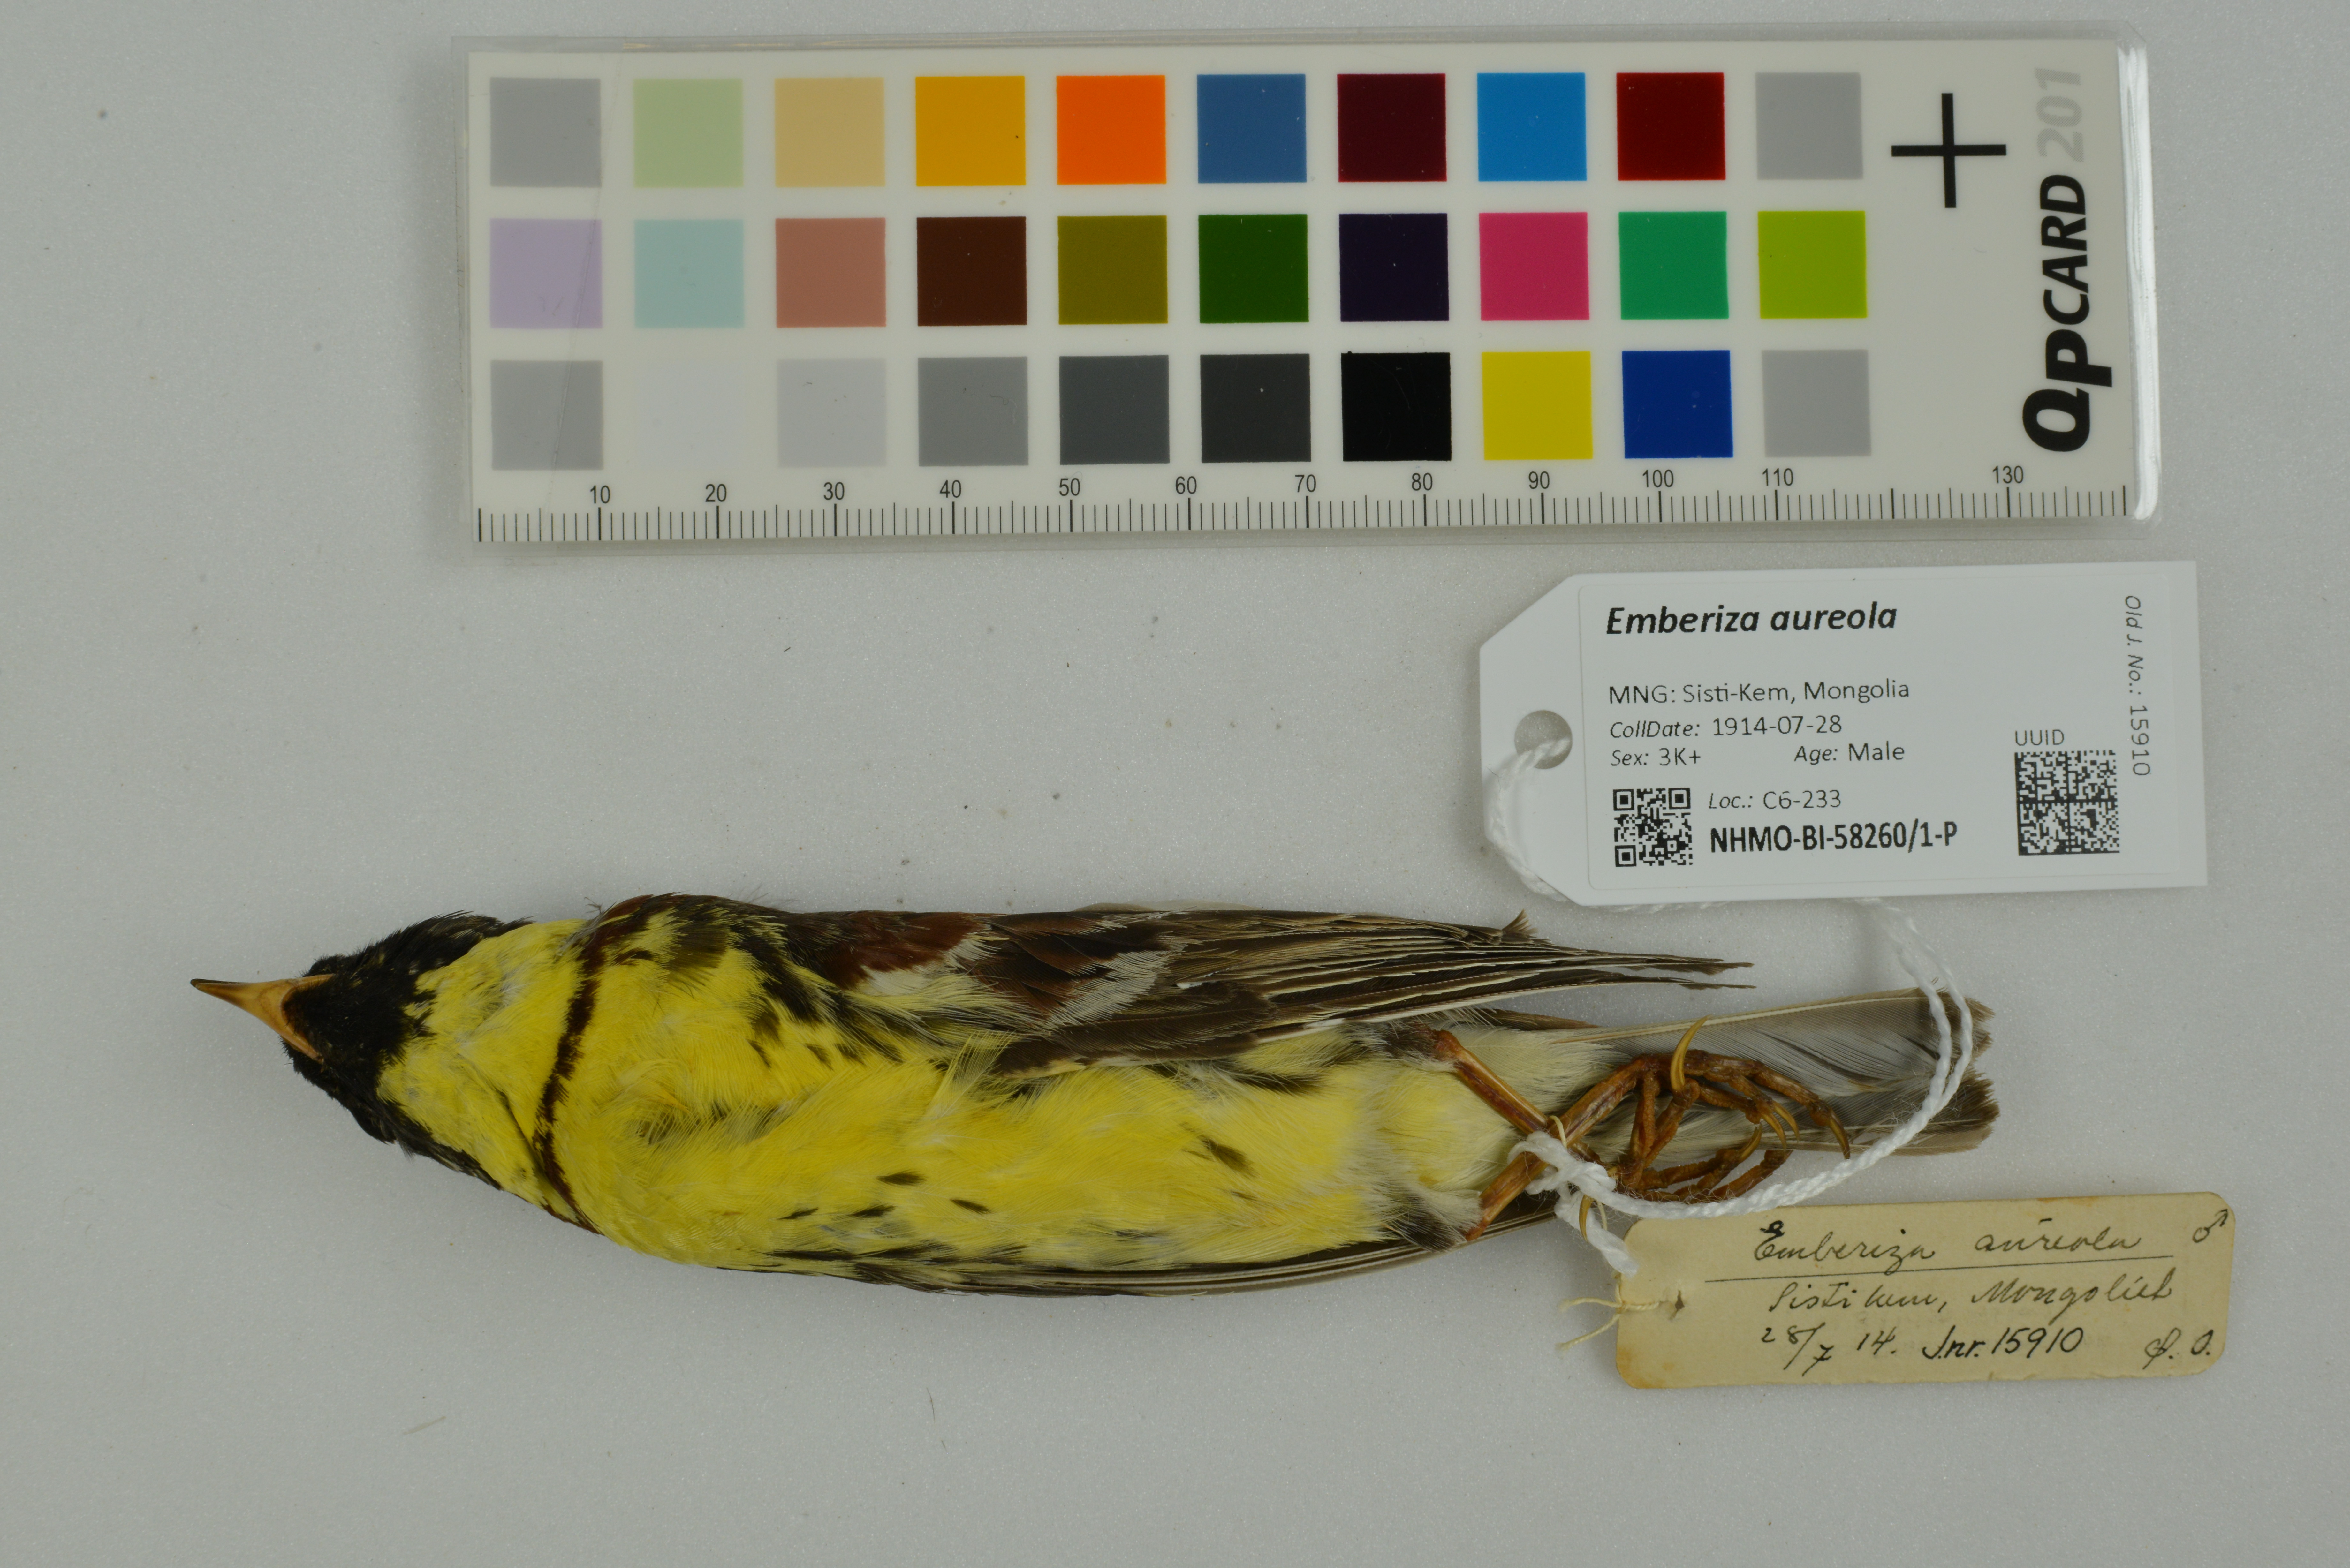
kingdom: Animalia
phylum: Chordata
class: Aves
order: Passeriformes
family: Emberizidae
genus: Emberiza
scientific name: Emberiza aureola
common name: Yellow-breasted bunting
